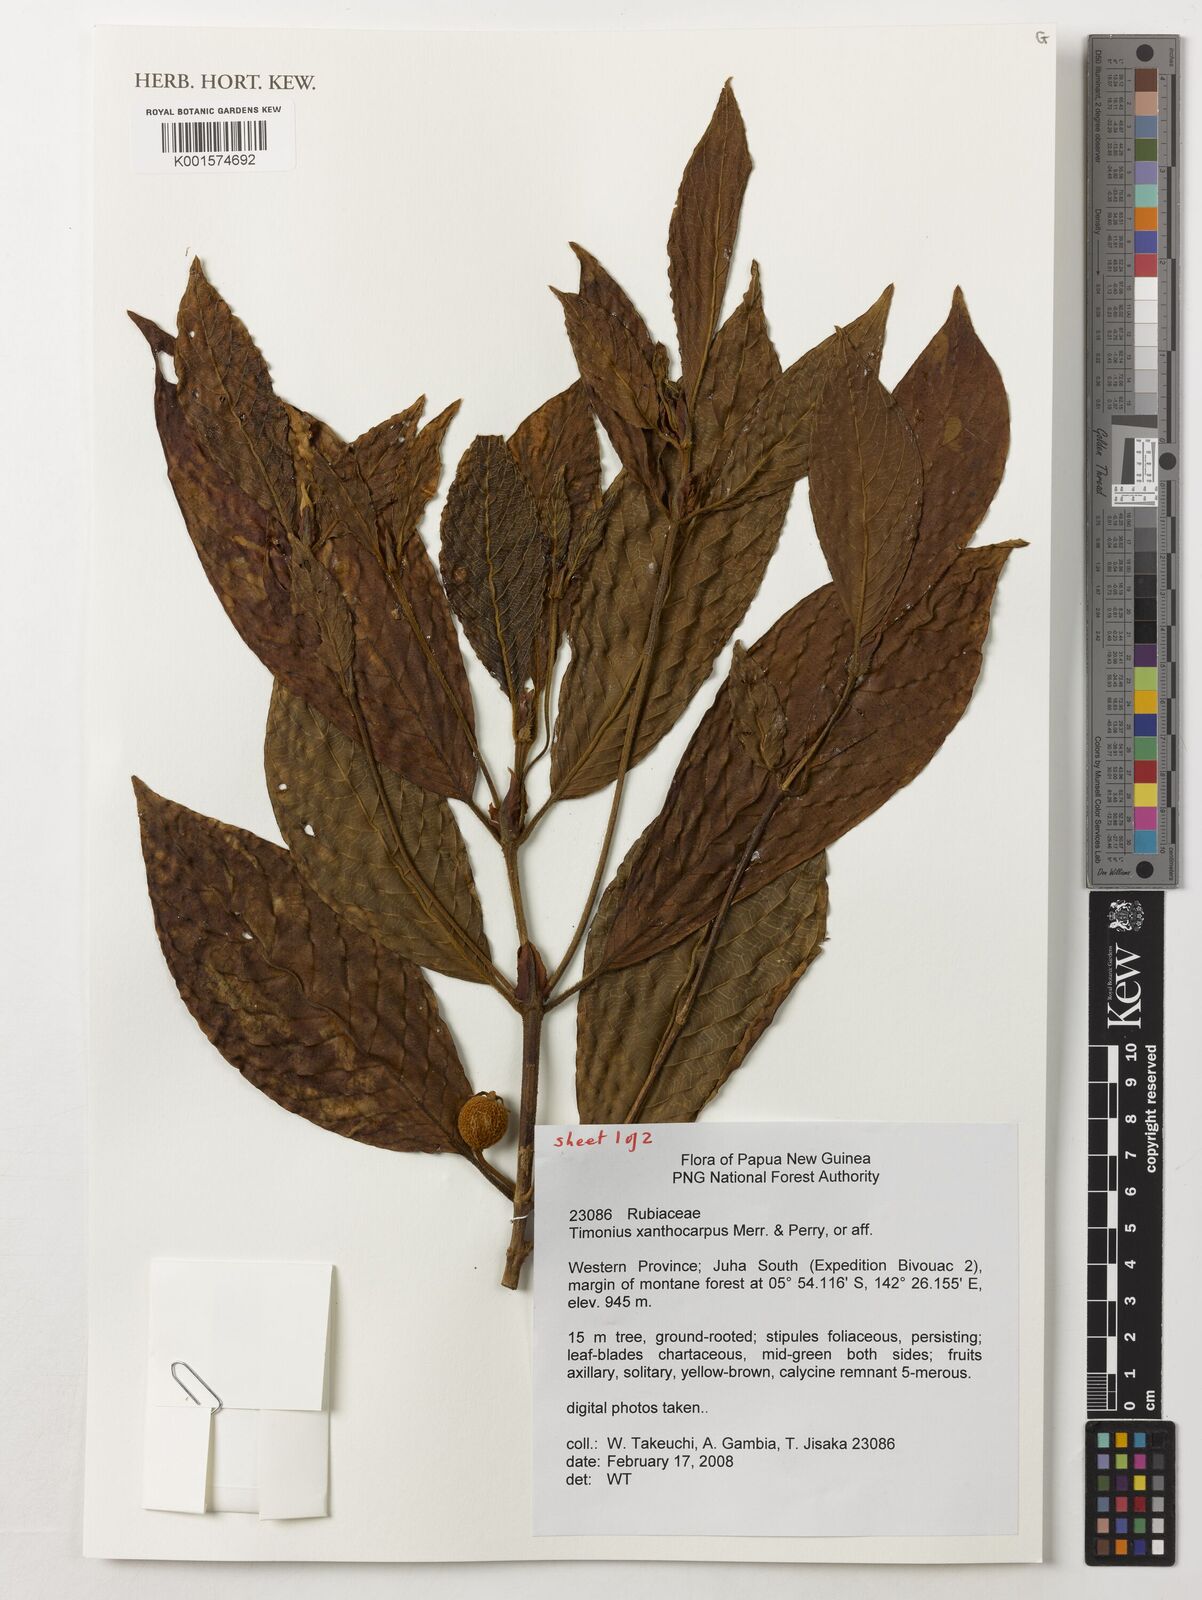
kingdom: Plantae
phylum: Tracheophyta
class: Magnoliopsida
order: Gentianales
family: Rubiaceae
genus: Timonius
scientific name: Timonius xanthocarpus
